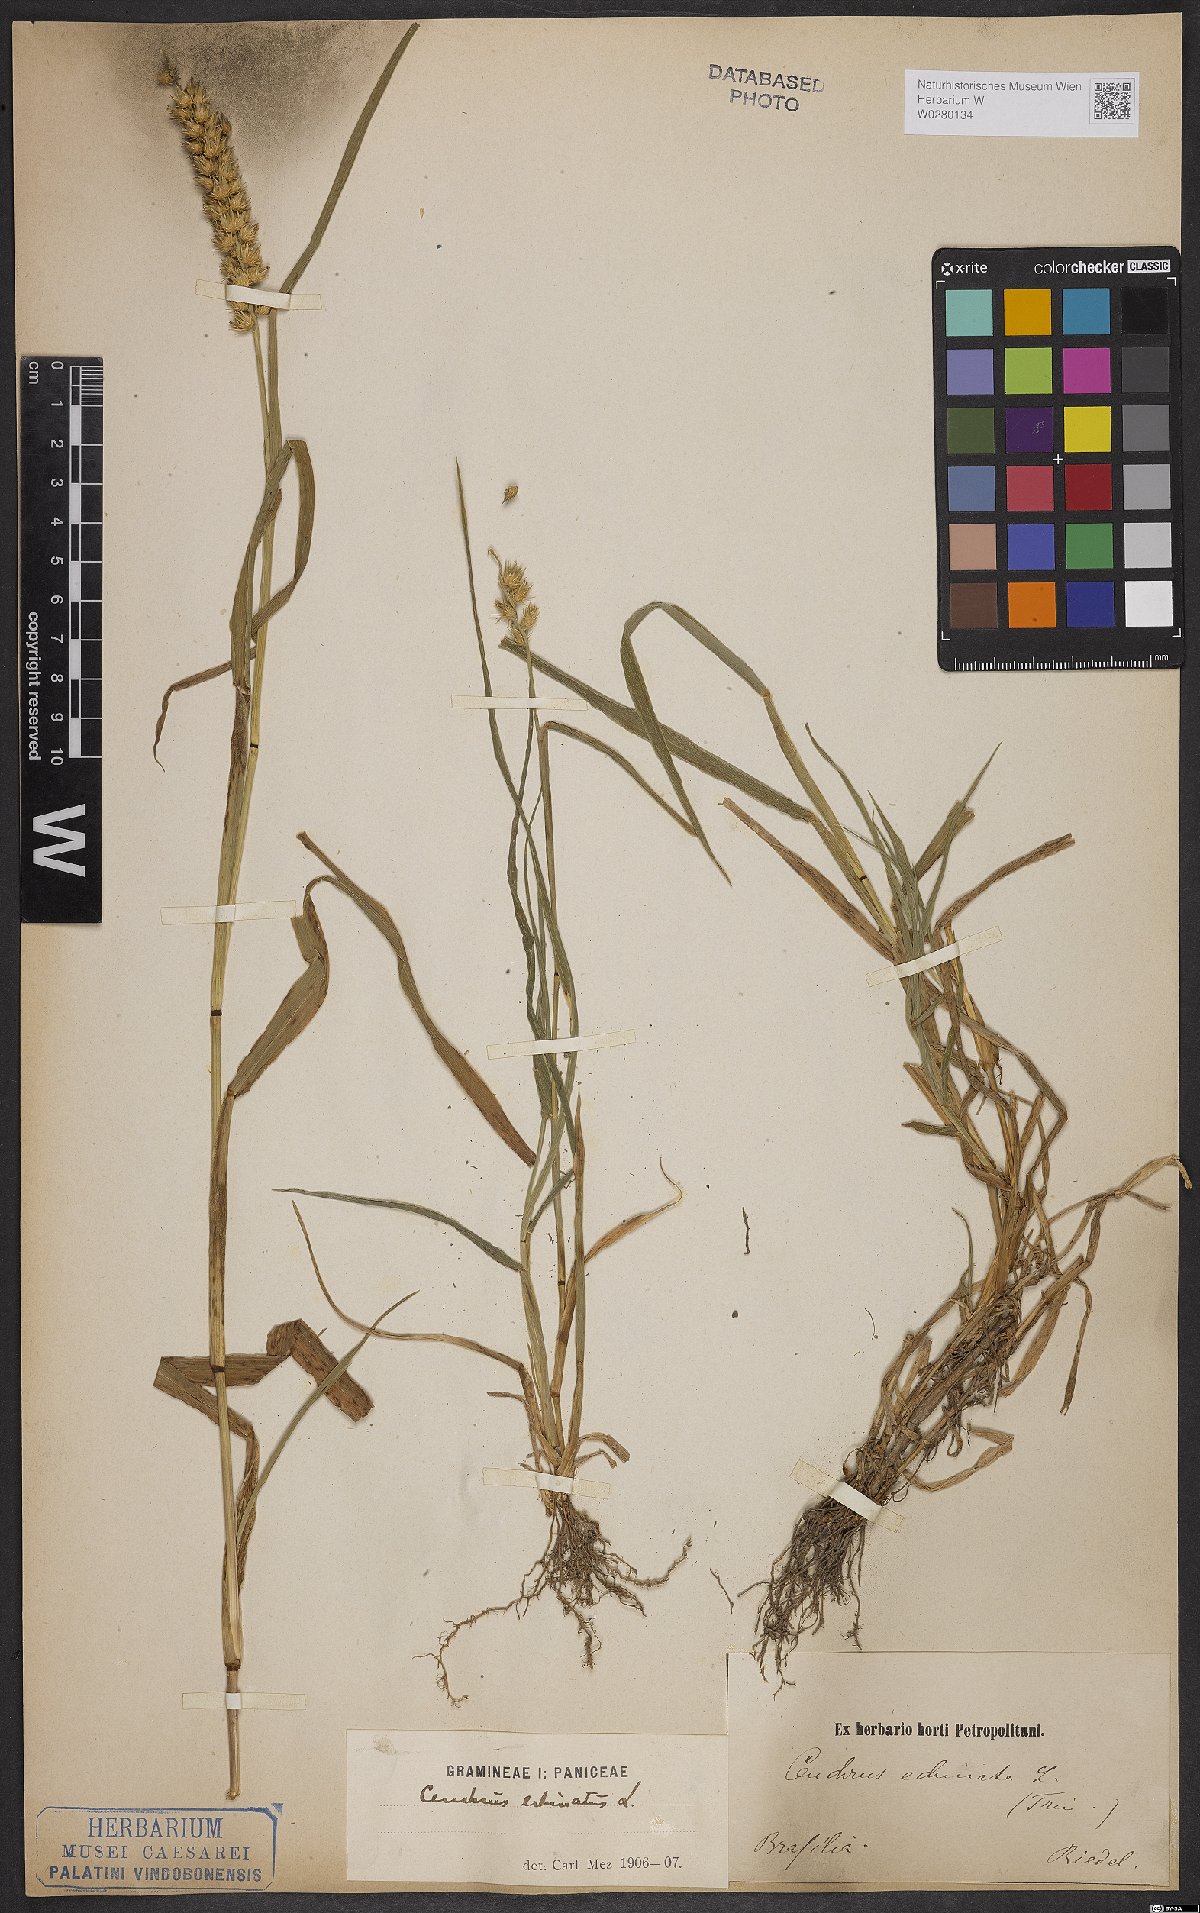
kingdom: Plantae
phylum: Tracheophyta
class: Liliopsida
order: Poales
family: Poaceae
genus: Cenchrus
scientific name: Cenchrus echinatus
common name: Southern sandbur
